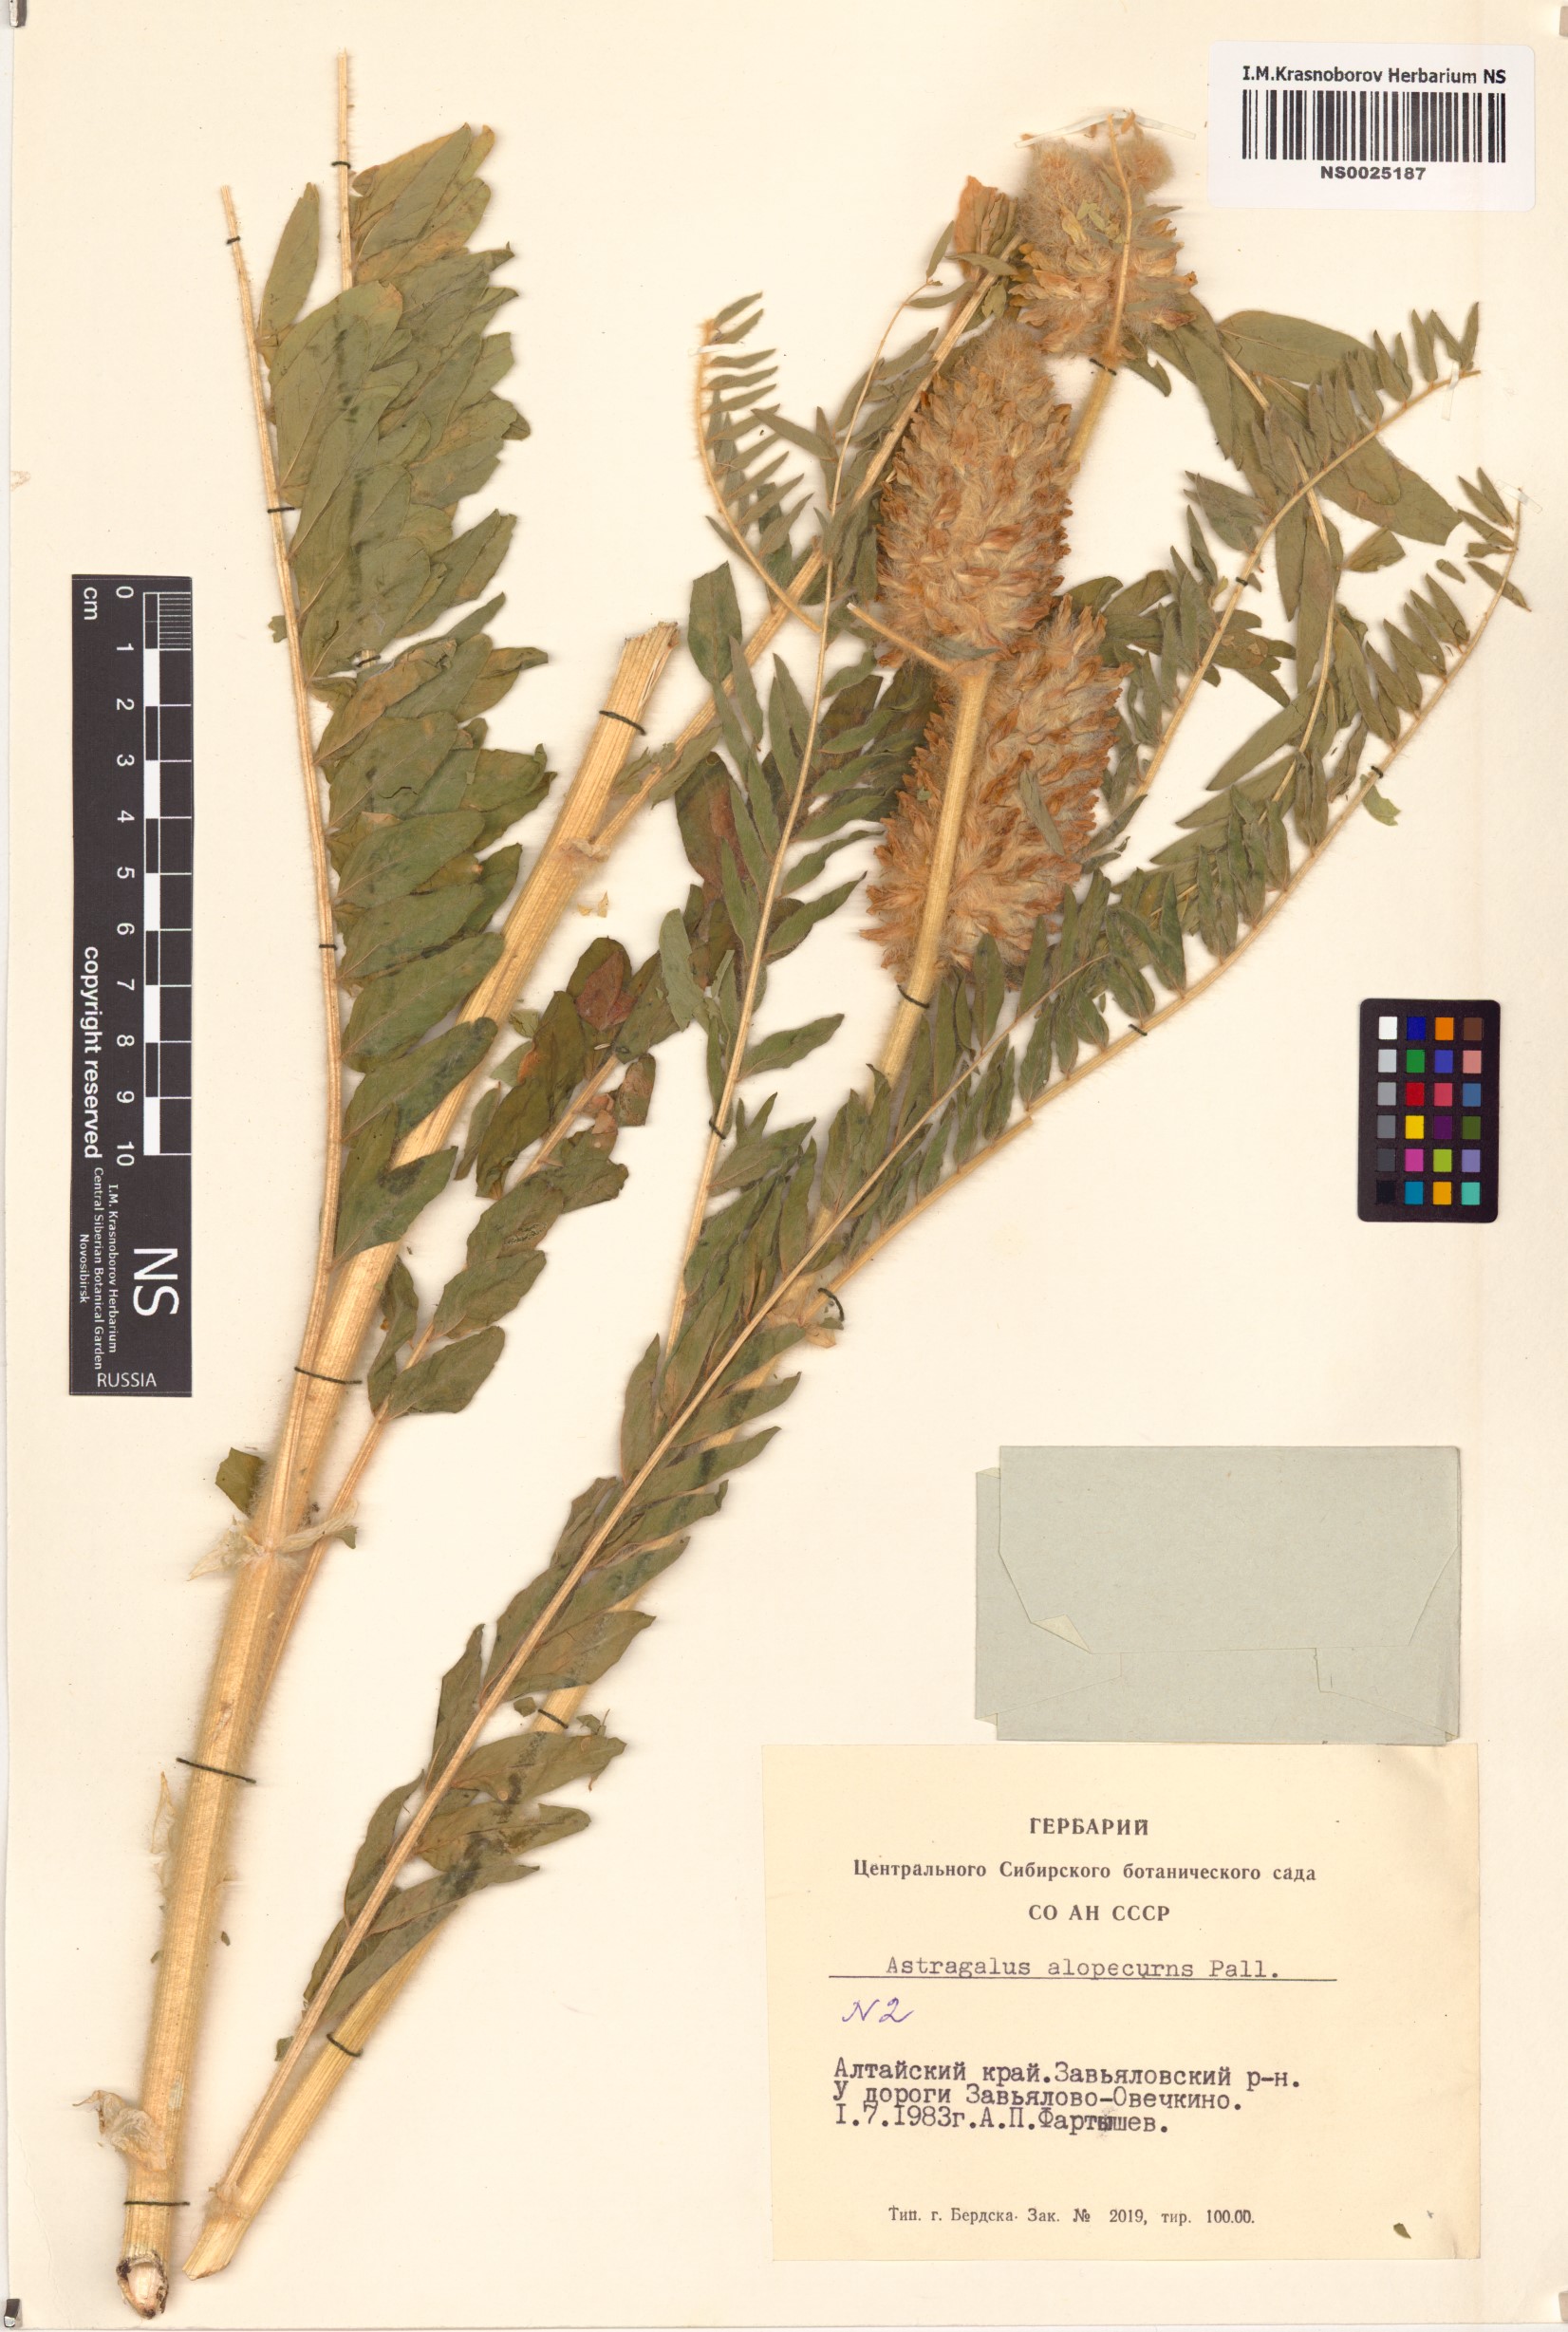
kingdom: Plantae
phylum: Tracheophyta
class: Magnoliopsida
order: Fabales
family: Fabaceae
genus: Astragalus
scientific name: Astragalus alopecurus
